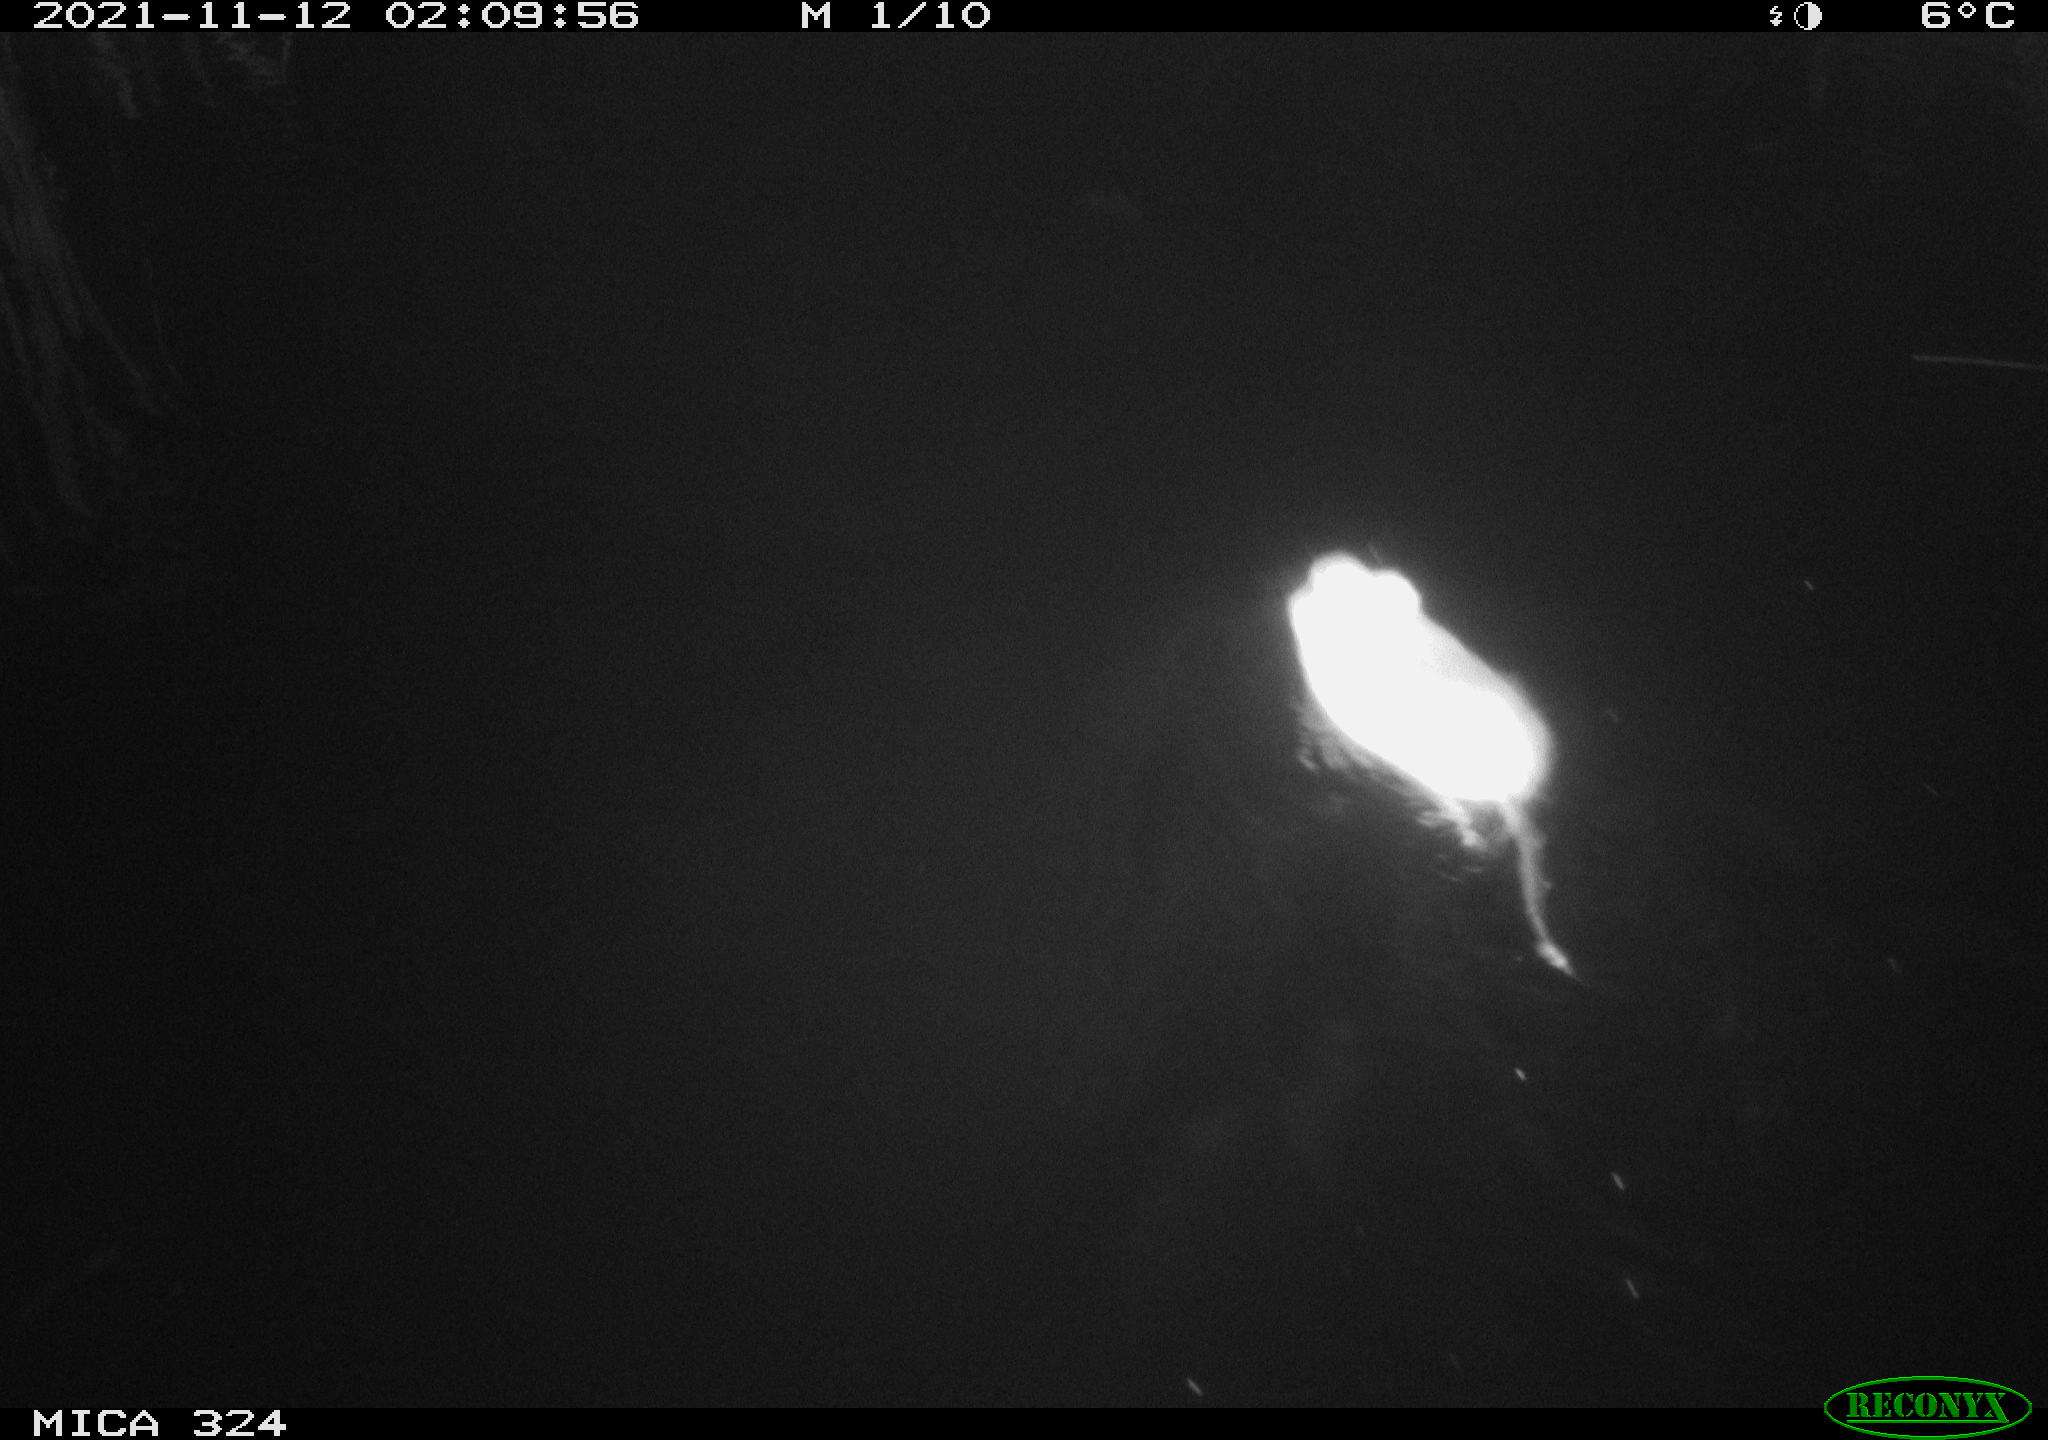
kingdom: Animalia
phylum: Chordata
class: Mammalia
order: Rodentia
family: Cricetidae
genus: Ondatra
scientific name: Ondatra zibethicus
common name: Muskrat
